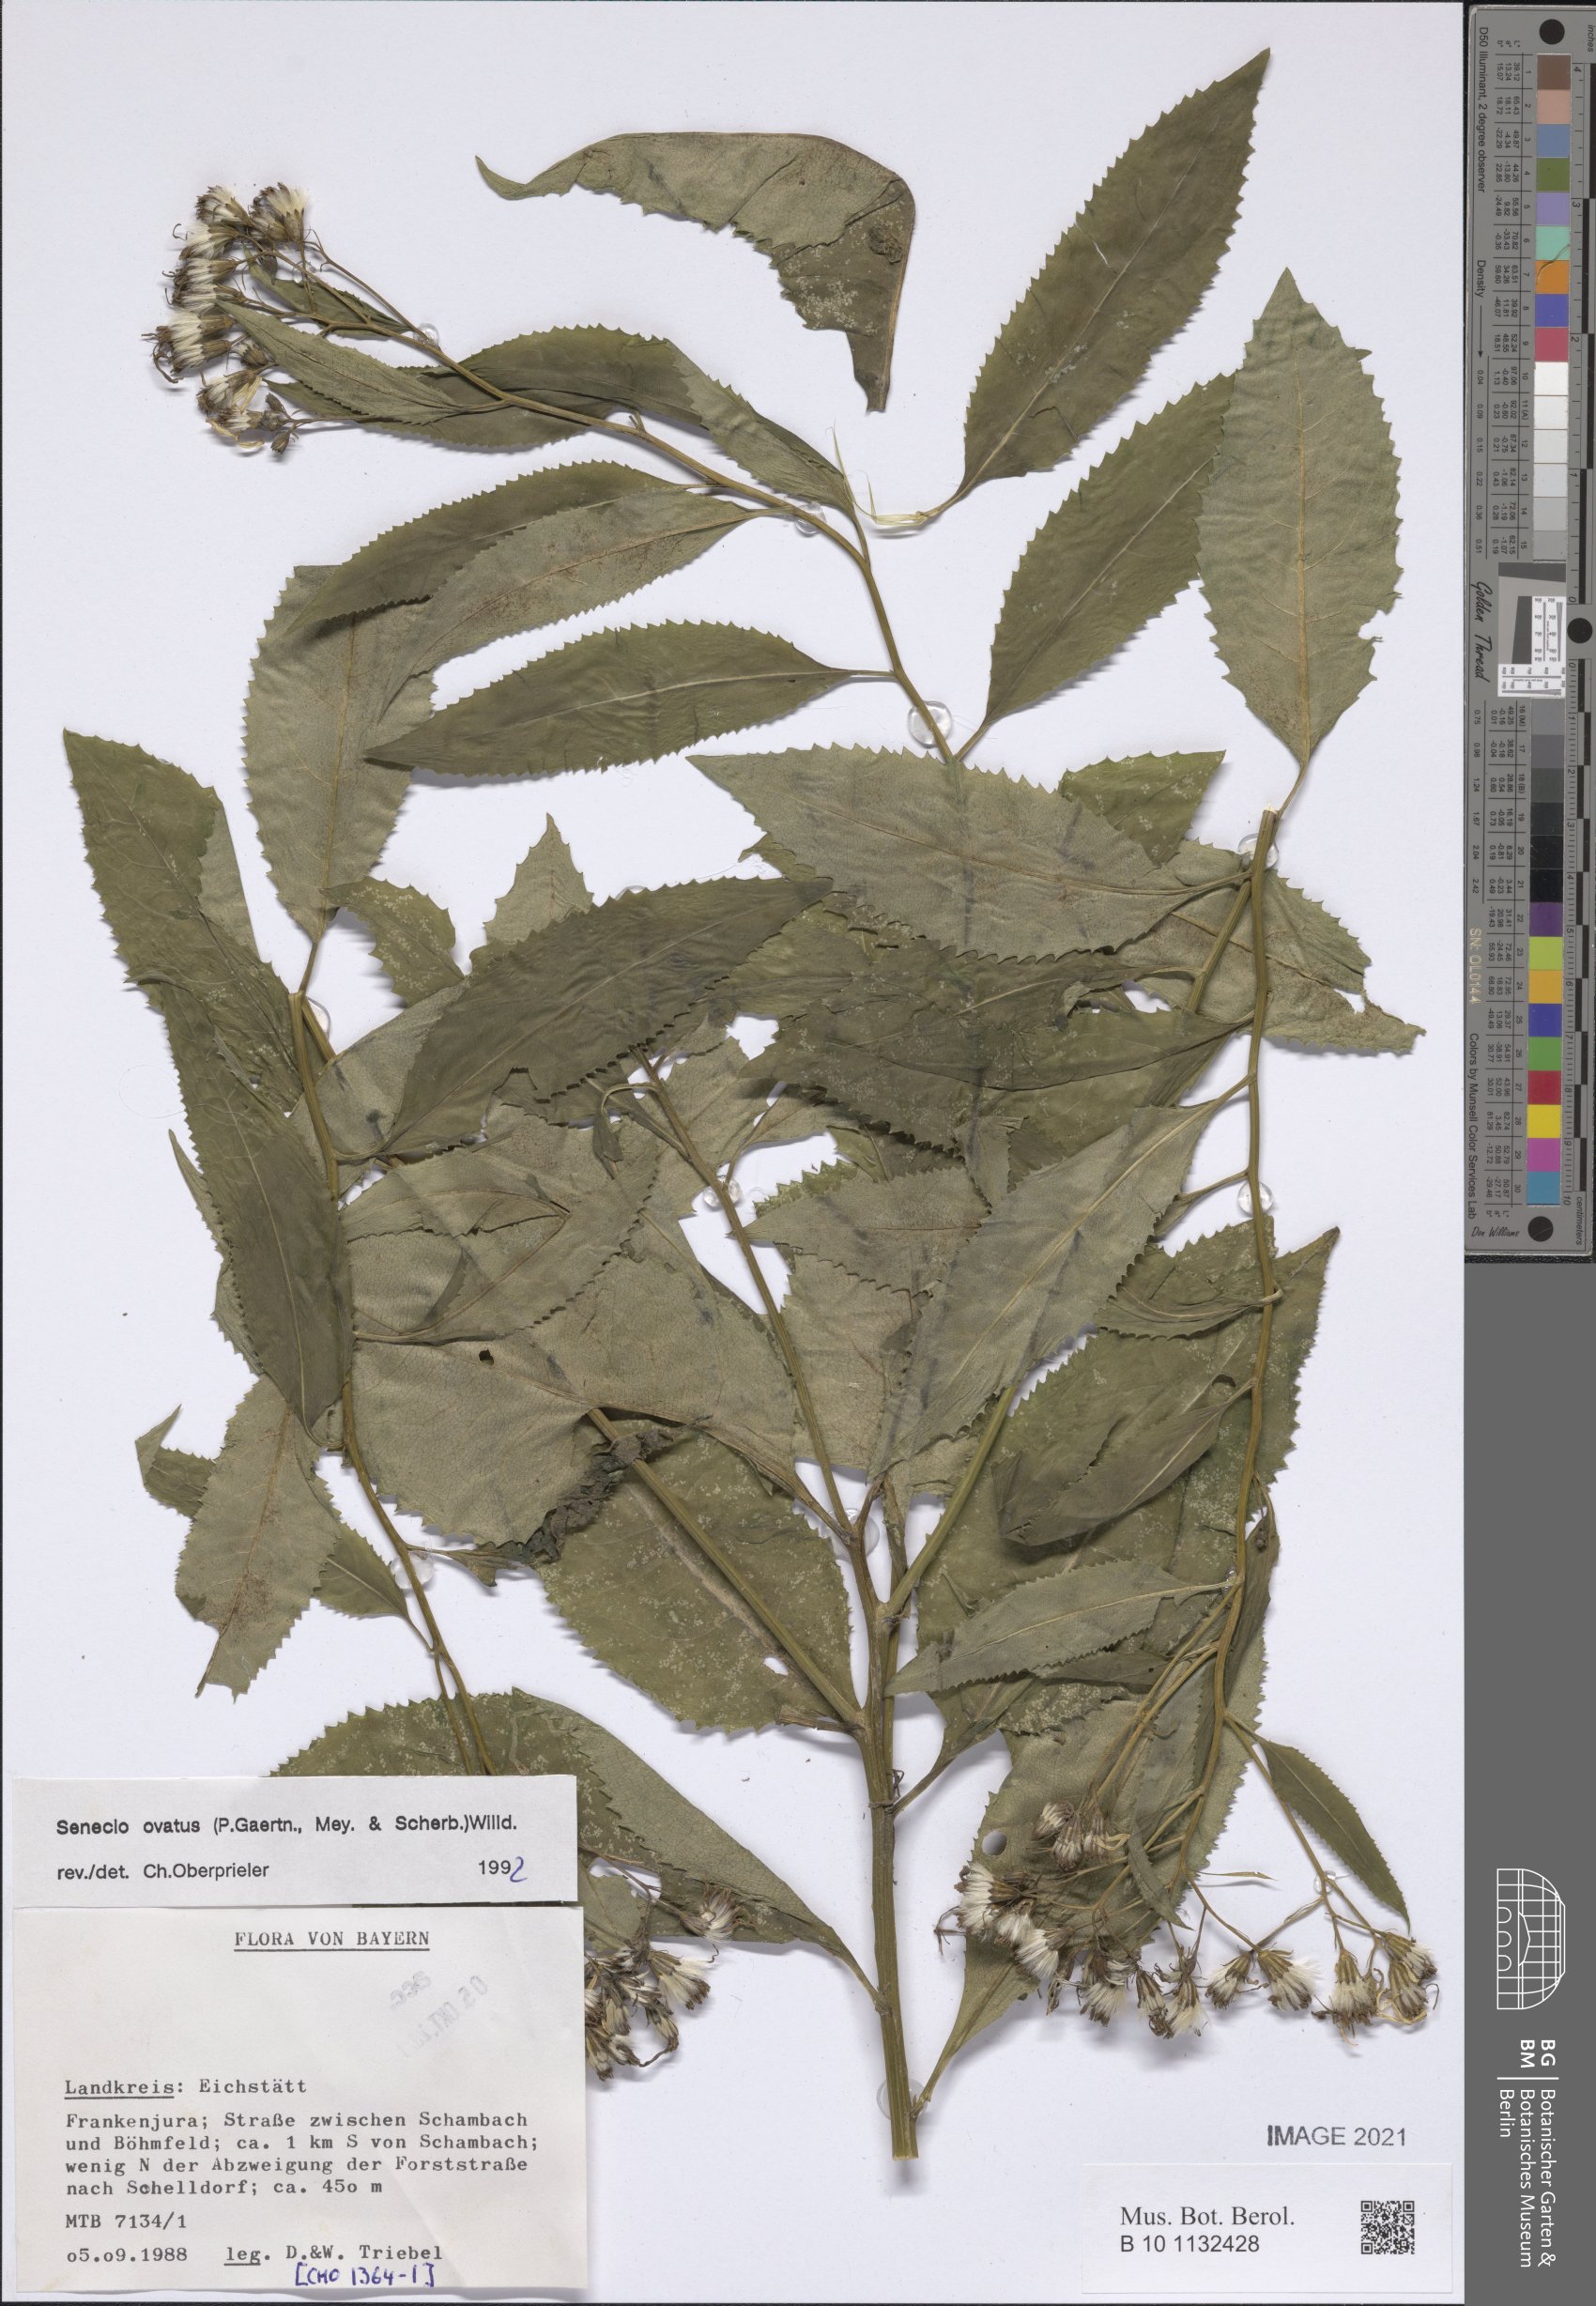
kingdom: Plantae
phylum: Tracheophyta
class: Magnoliopsida
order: Asterales
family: Asteraceae
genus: Senecio
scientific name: Senecio ovatus
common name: Wood ragwort
